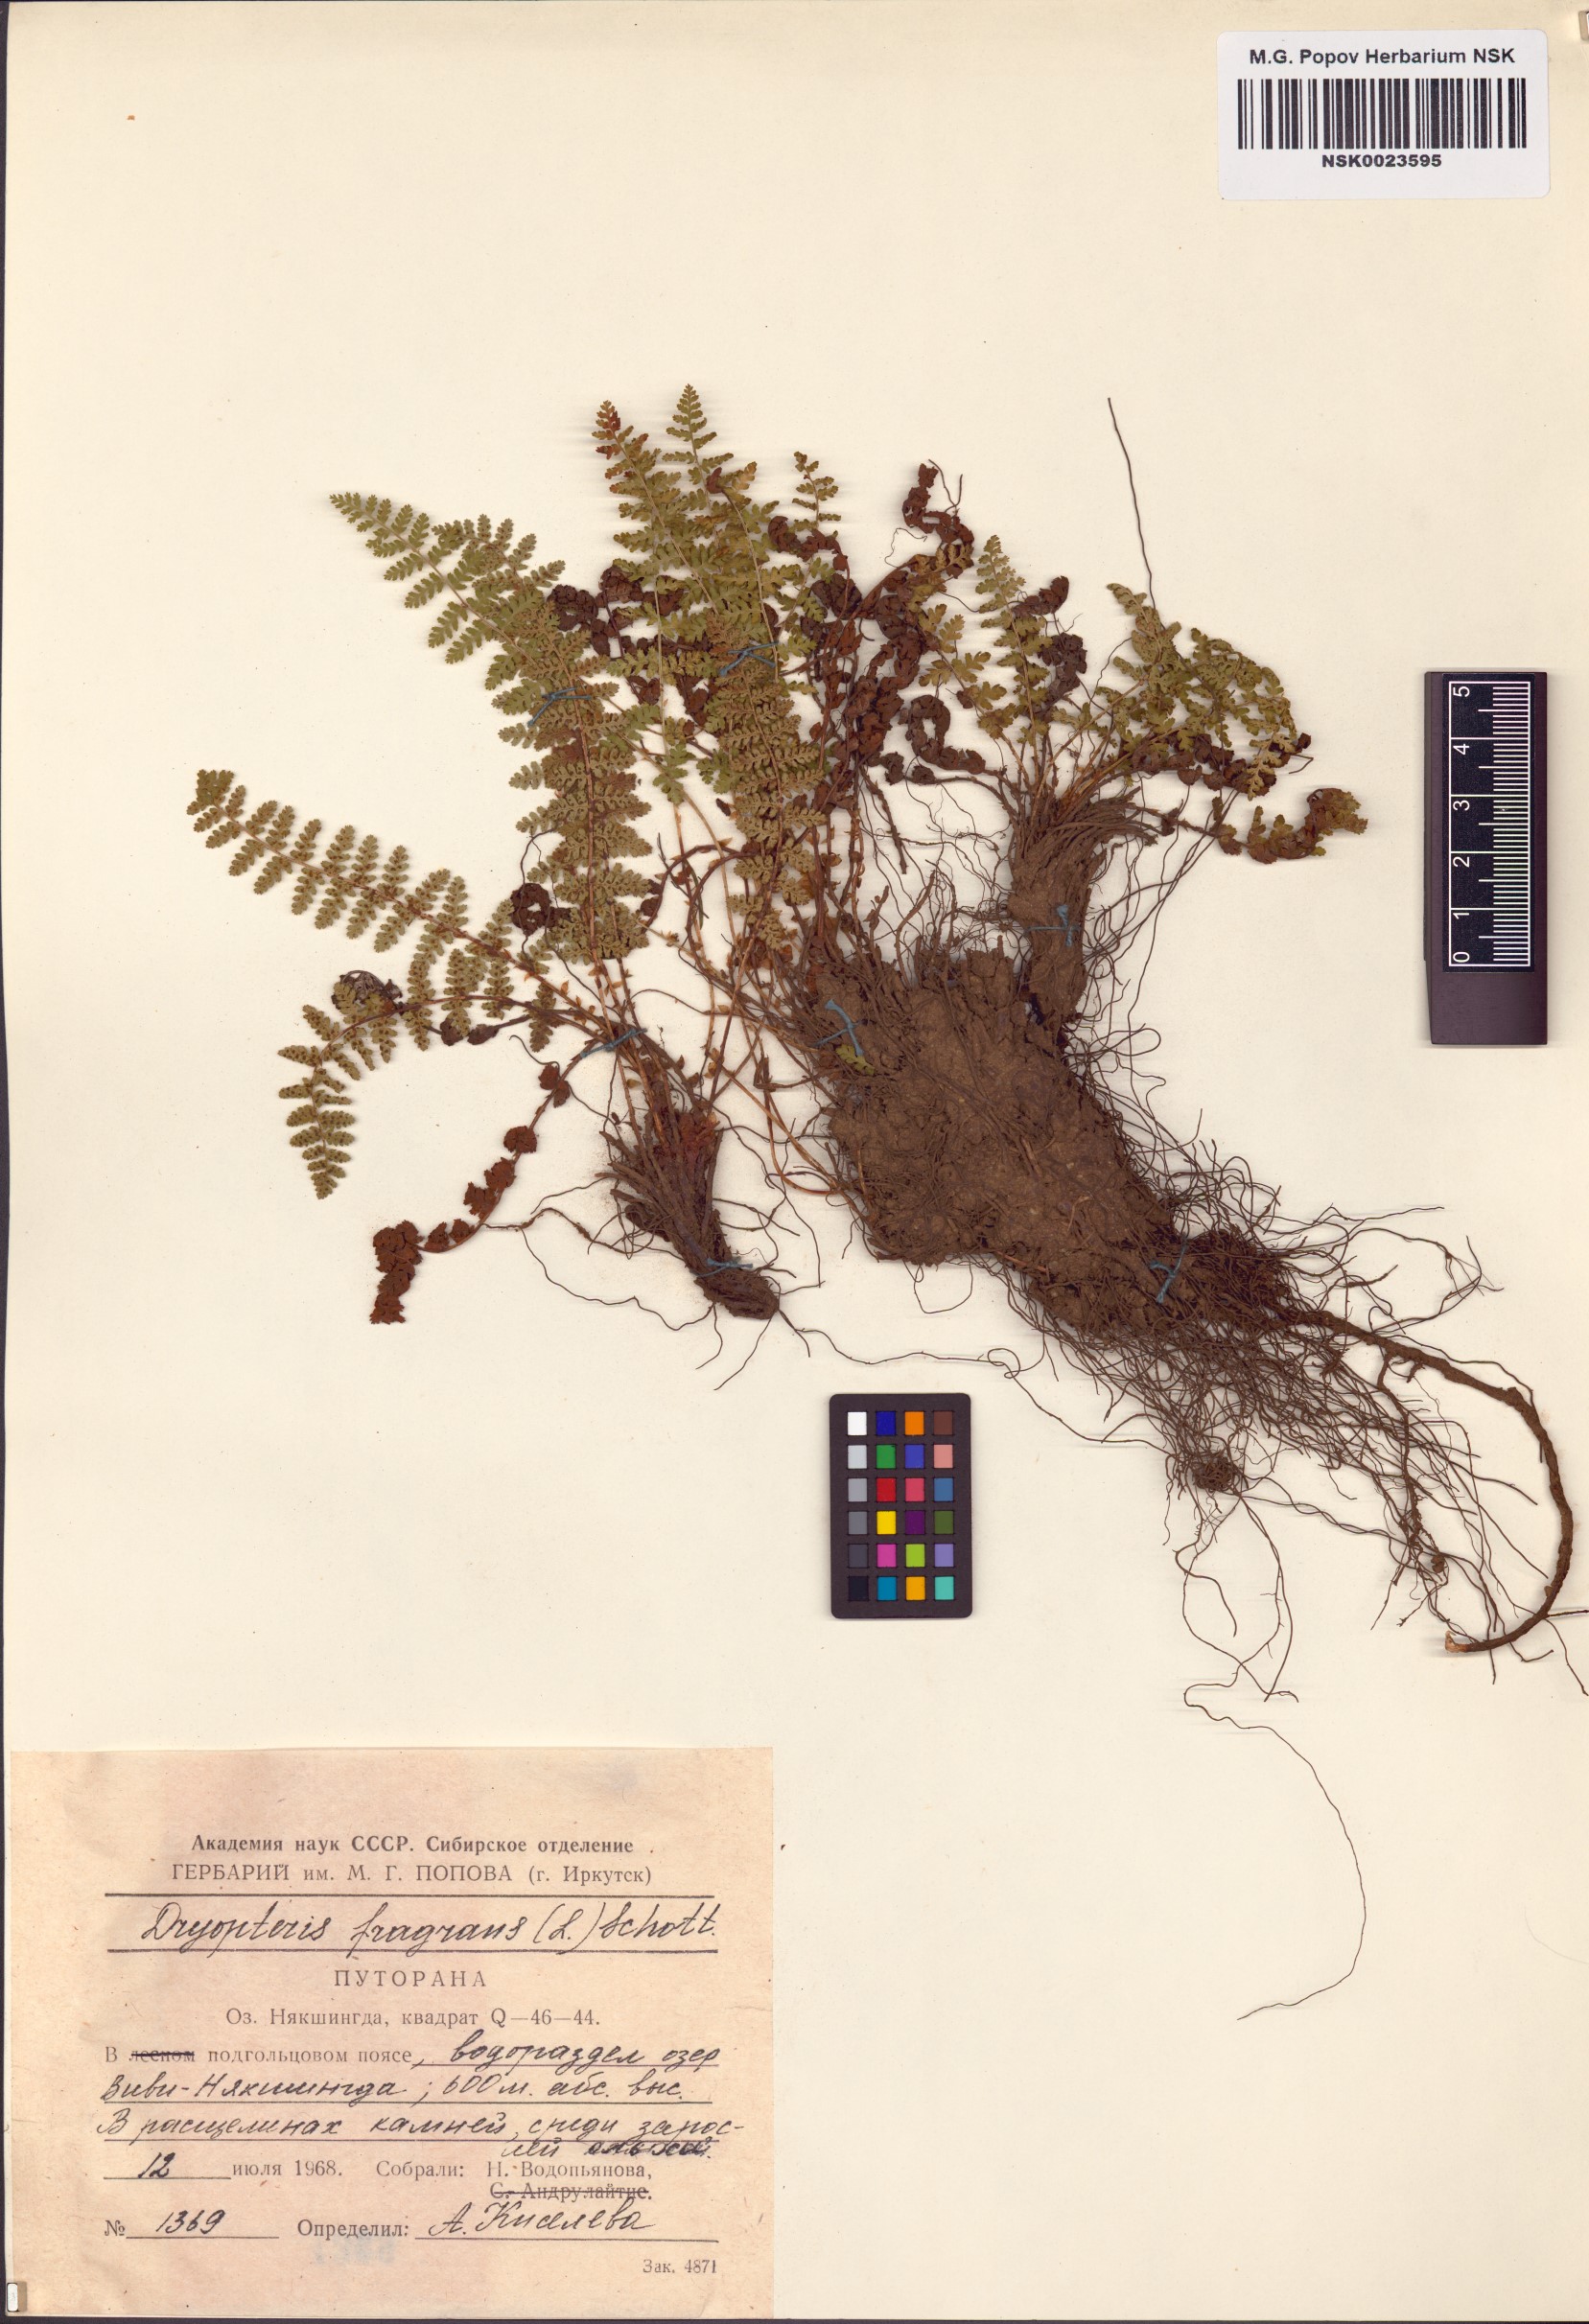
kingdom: Plantae
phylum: Tracheophyta
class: Polypodiopsida
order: Polypodiales
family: Dryopteridaceae
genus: Dryopteris
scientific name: Dryopteris fragrans
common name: Fragrant wood fern
